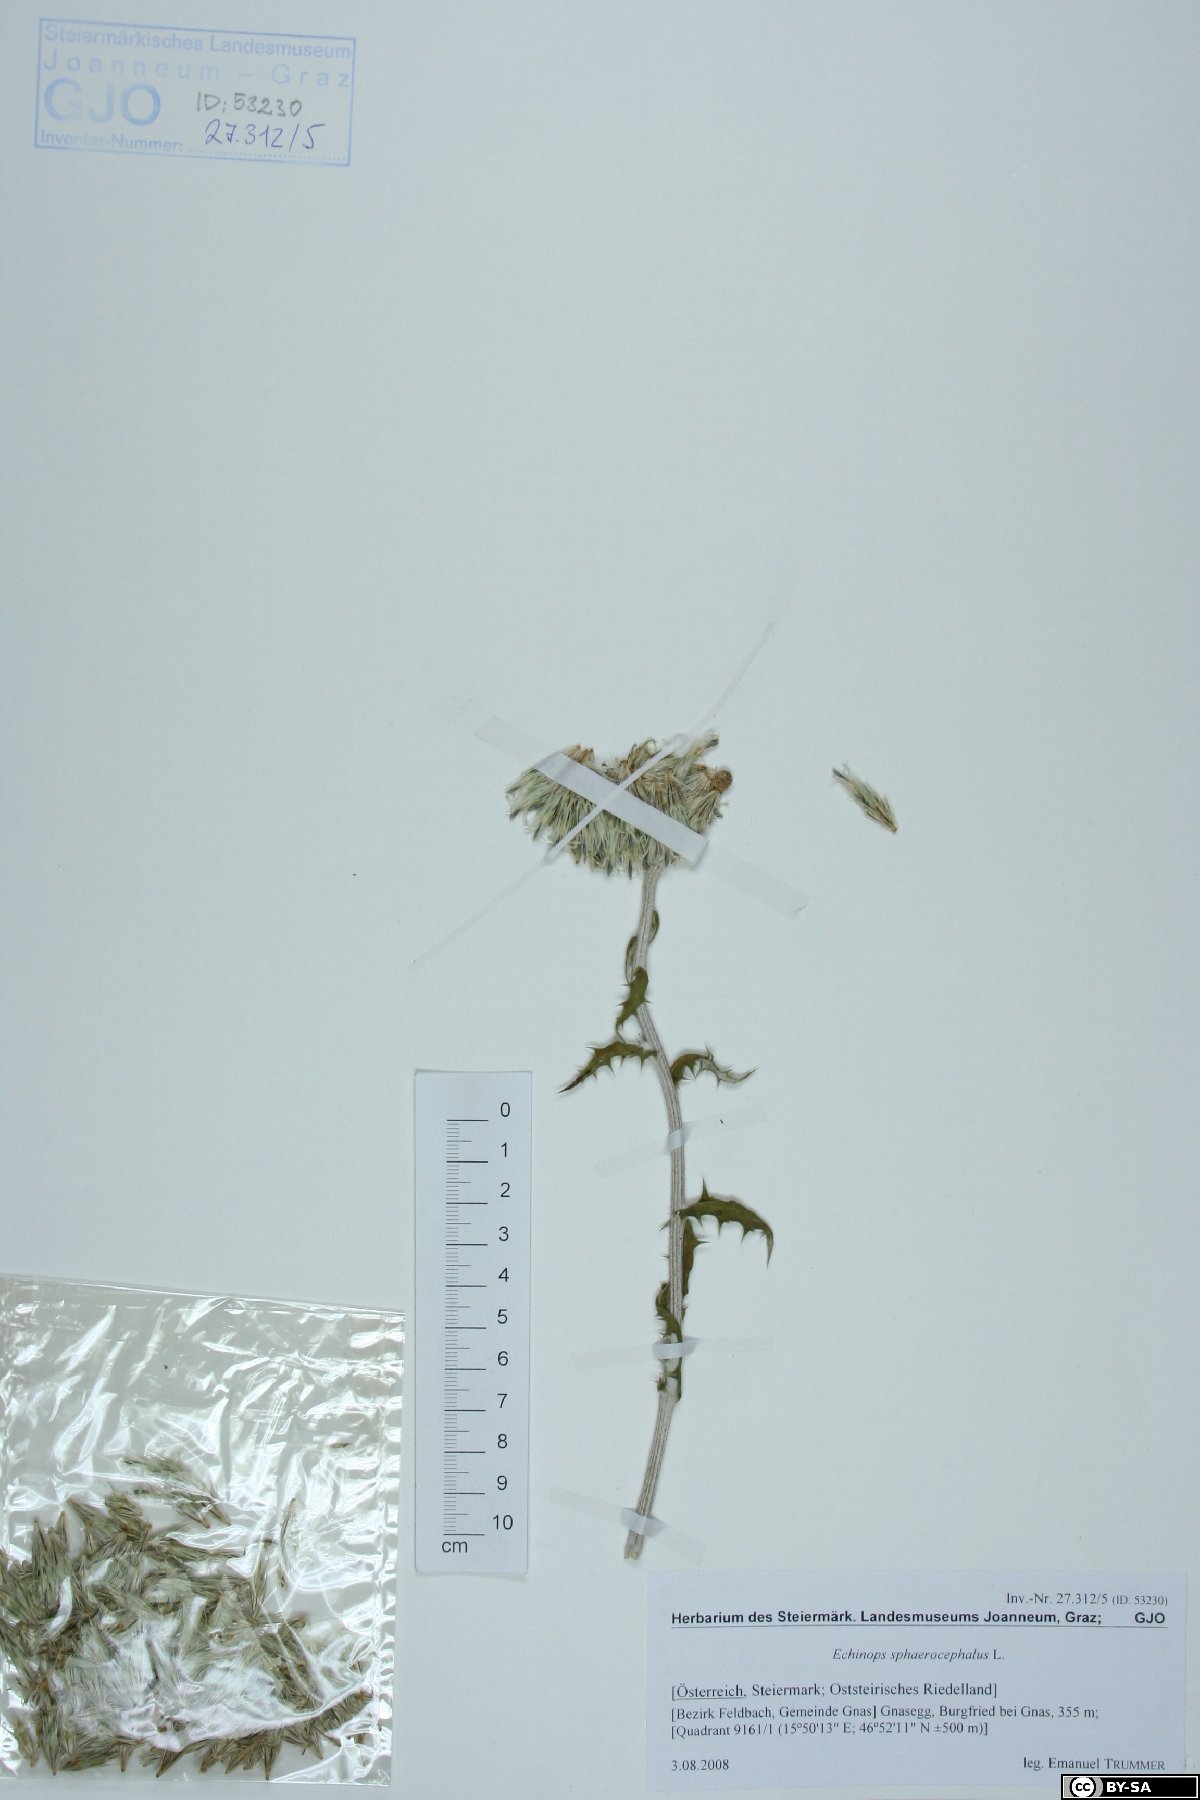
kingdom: Plantae
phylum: Tracheophyta
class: Magnoliopsida
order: Asterales
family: Asteraceae
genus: Echinops
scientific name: Echinops sphaerocephalus
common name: Glandular globe-thistle
